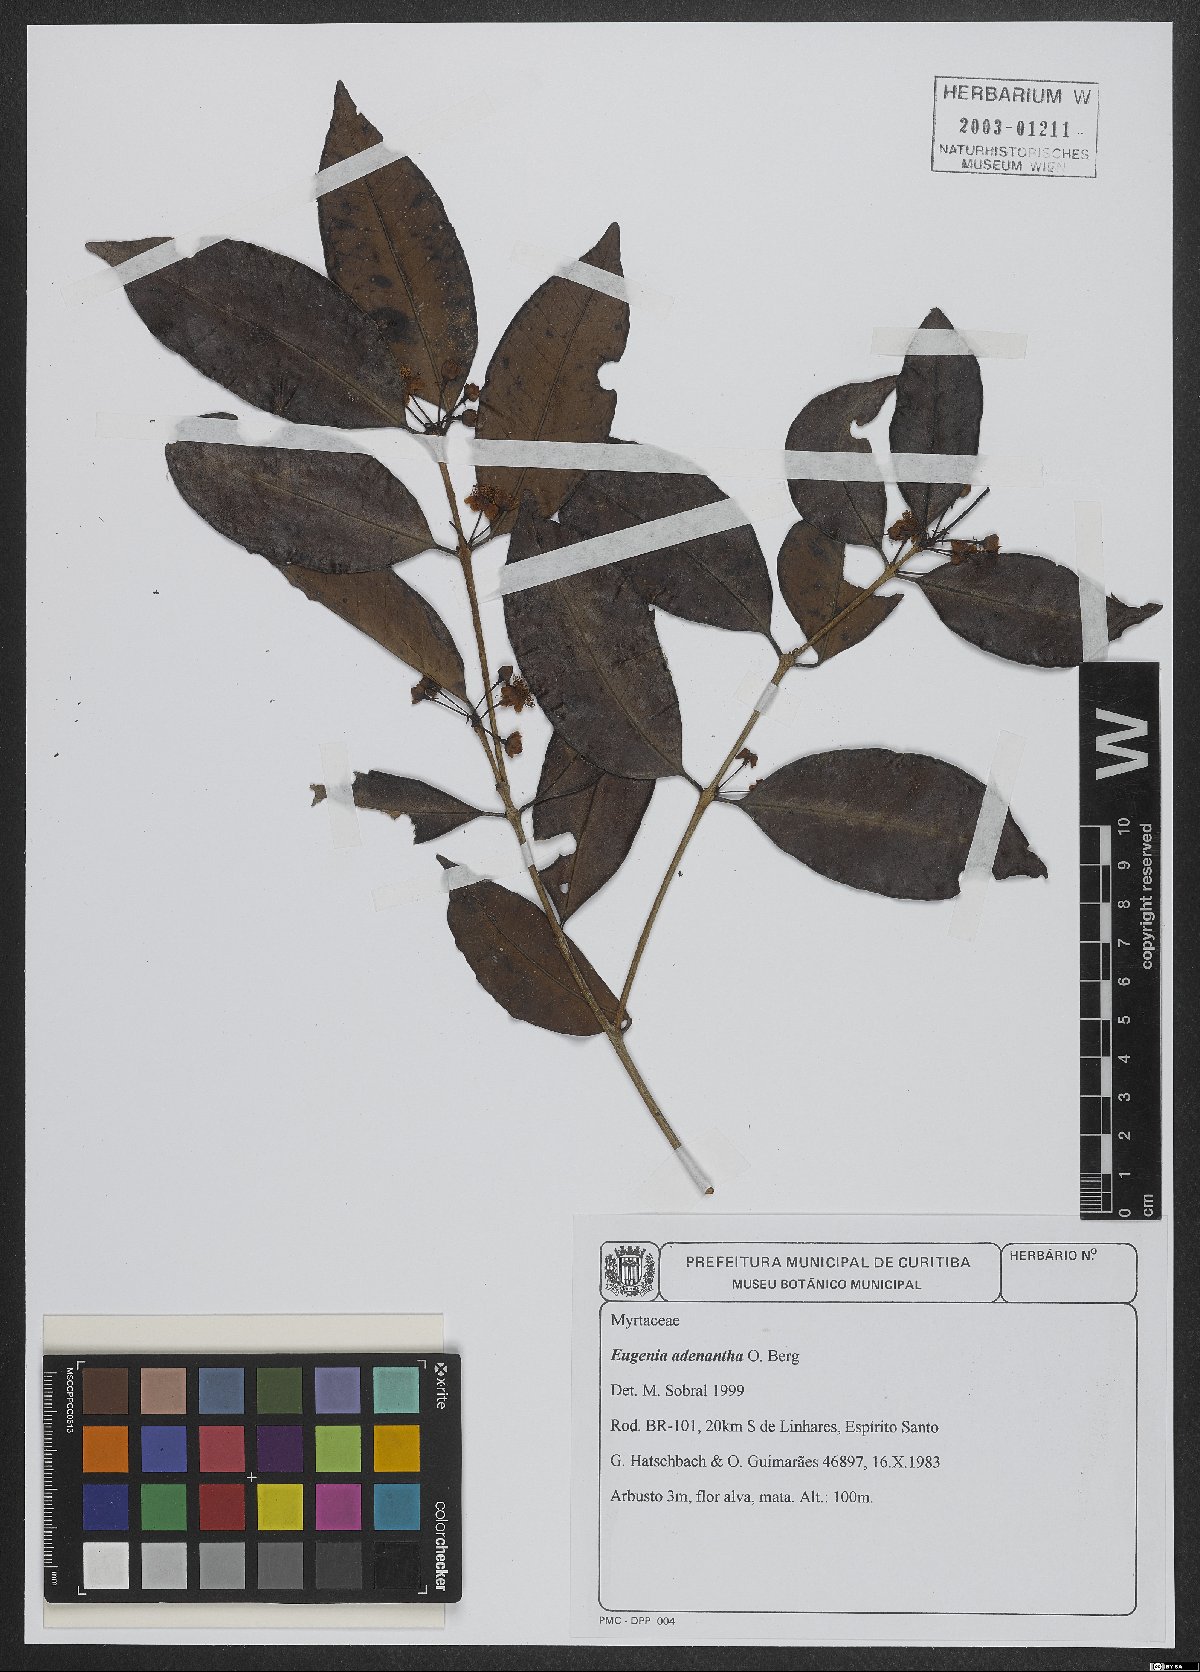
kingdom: Plantae
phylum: Tracheophyta
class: Magnoliopsida
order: Myrtales
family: Myrtaceae
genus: Eugenia
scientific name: Eugenia adenantha
